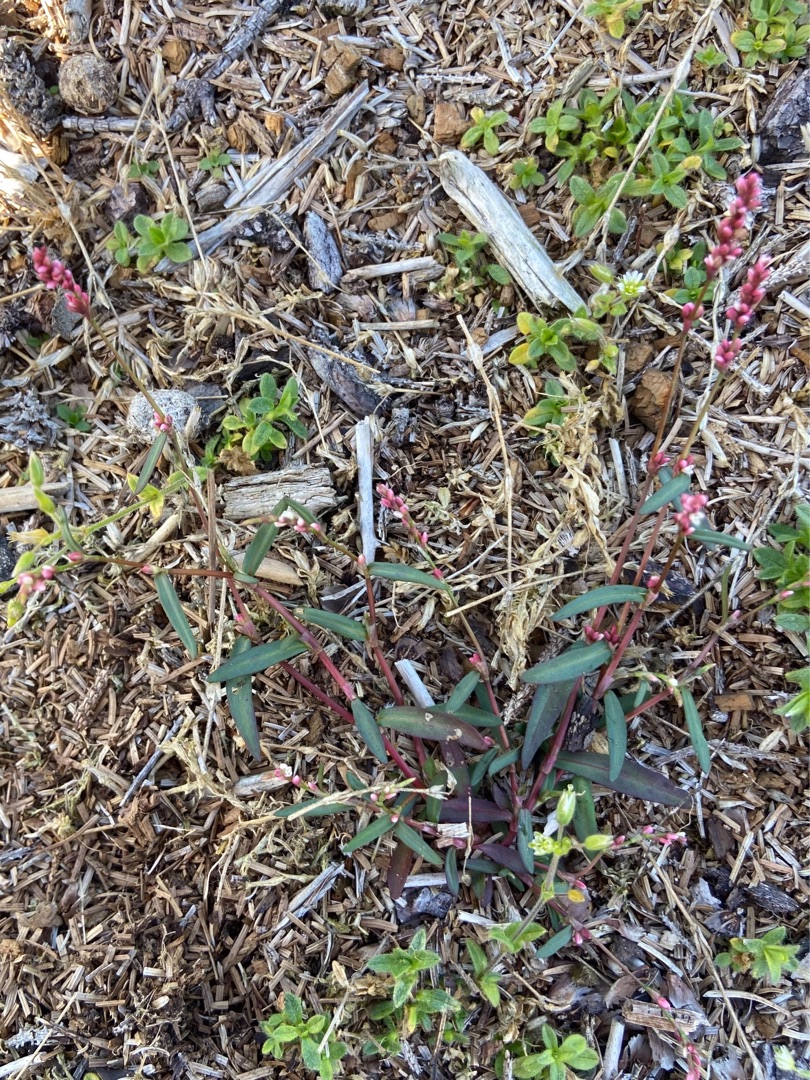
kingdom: Plantae
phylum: Tracheophyta
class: Magnoliopsida
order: Caryophyllales
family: Polygonaceae
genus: Persicaria
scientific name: Persicaria minor
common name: Liden pileurt
